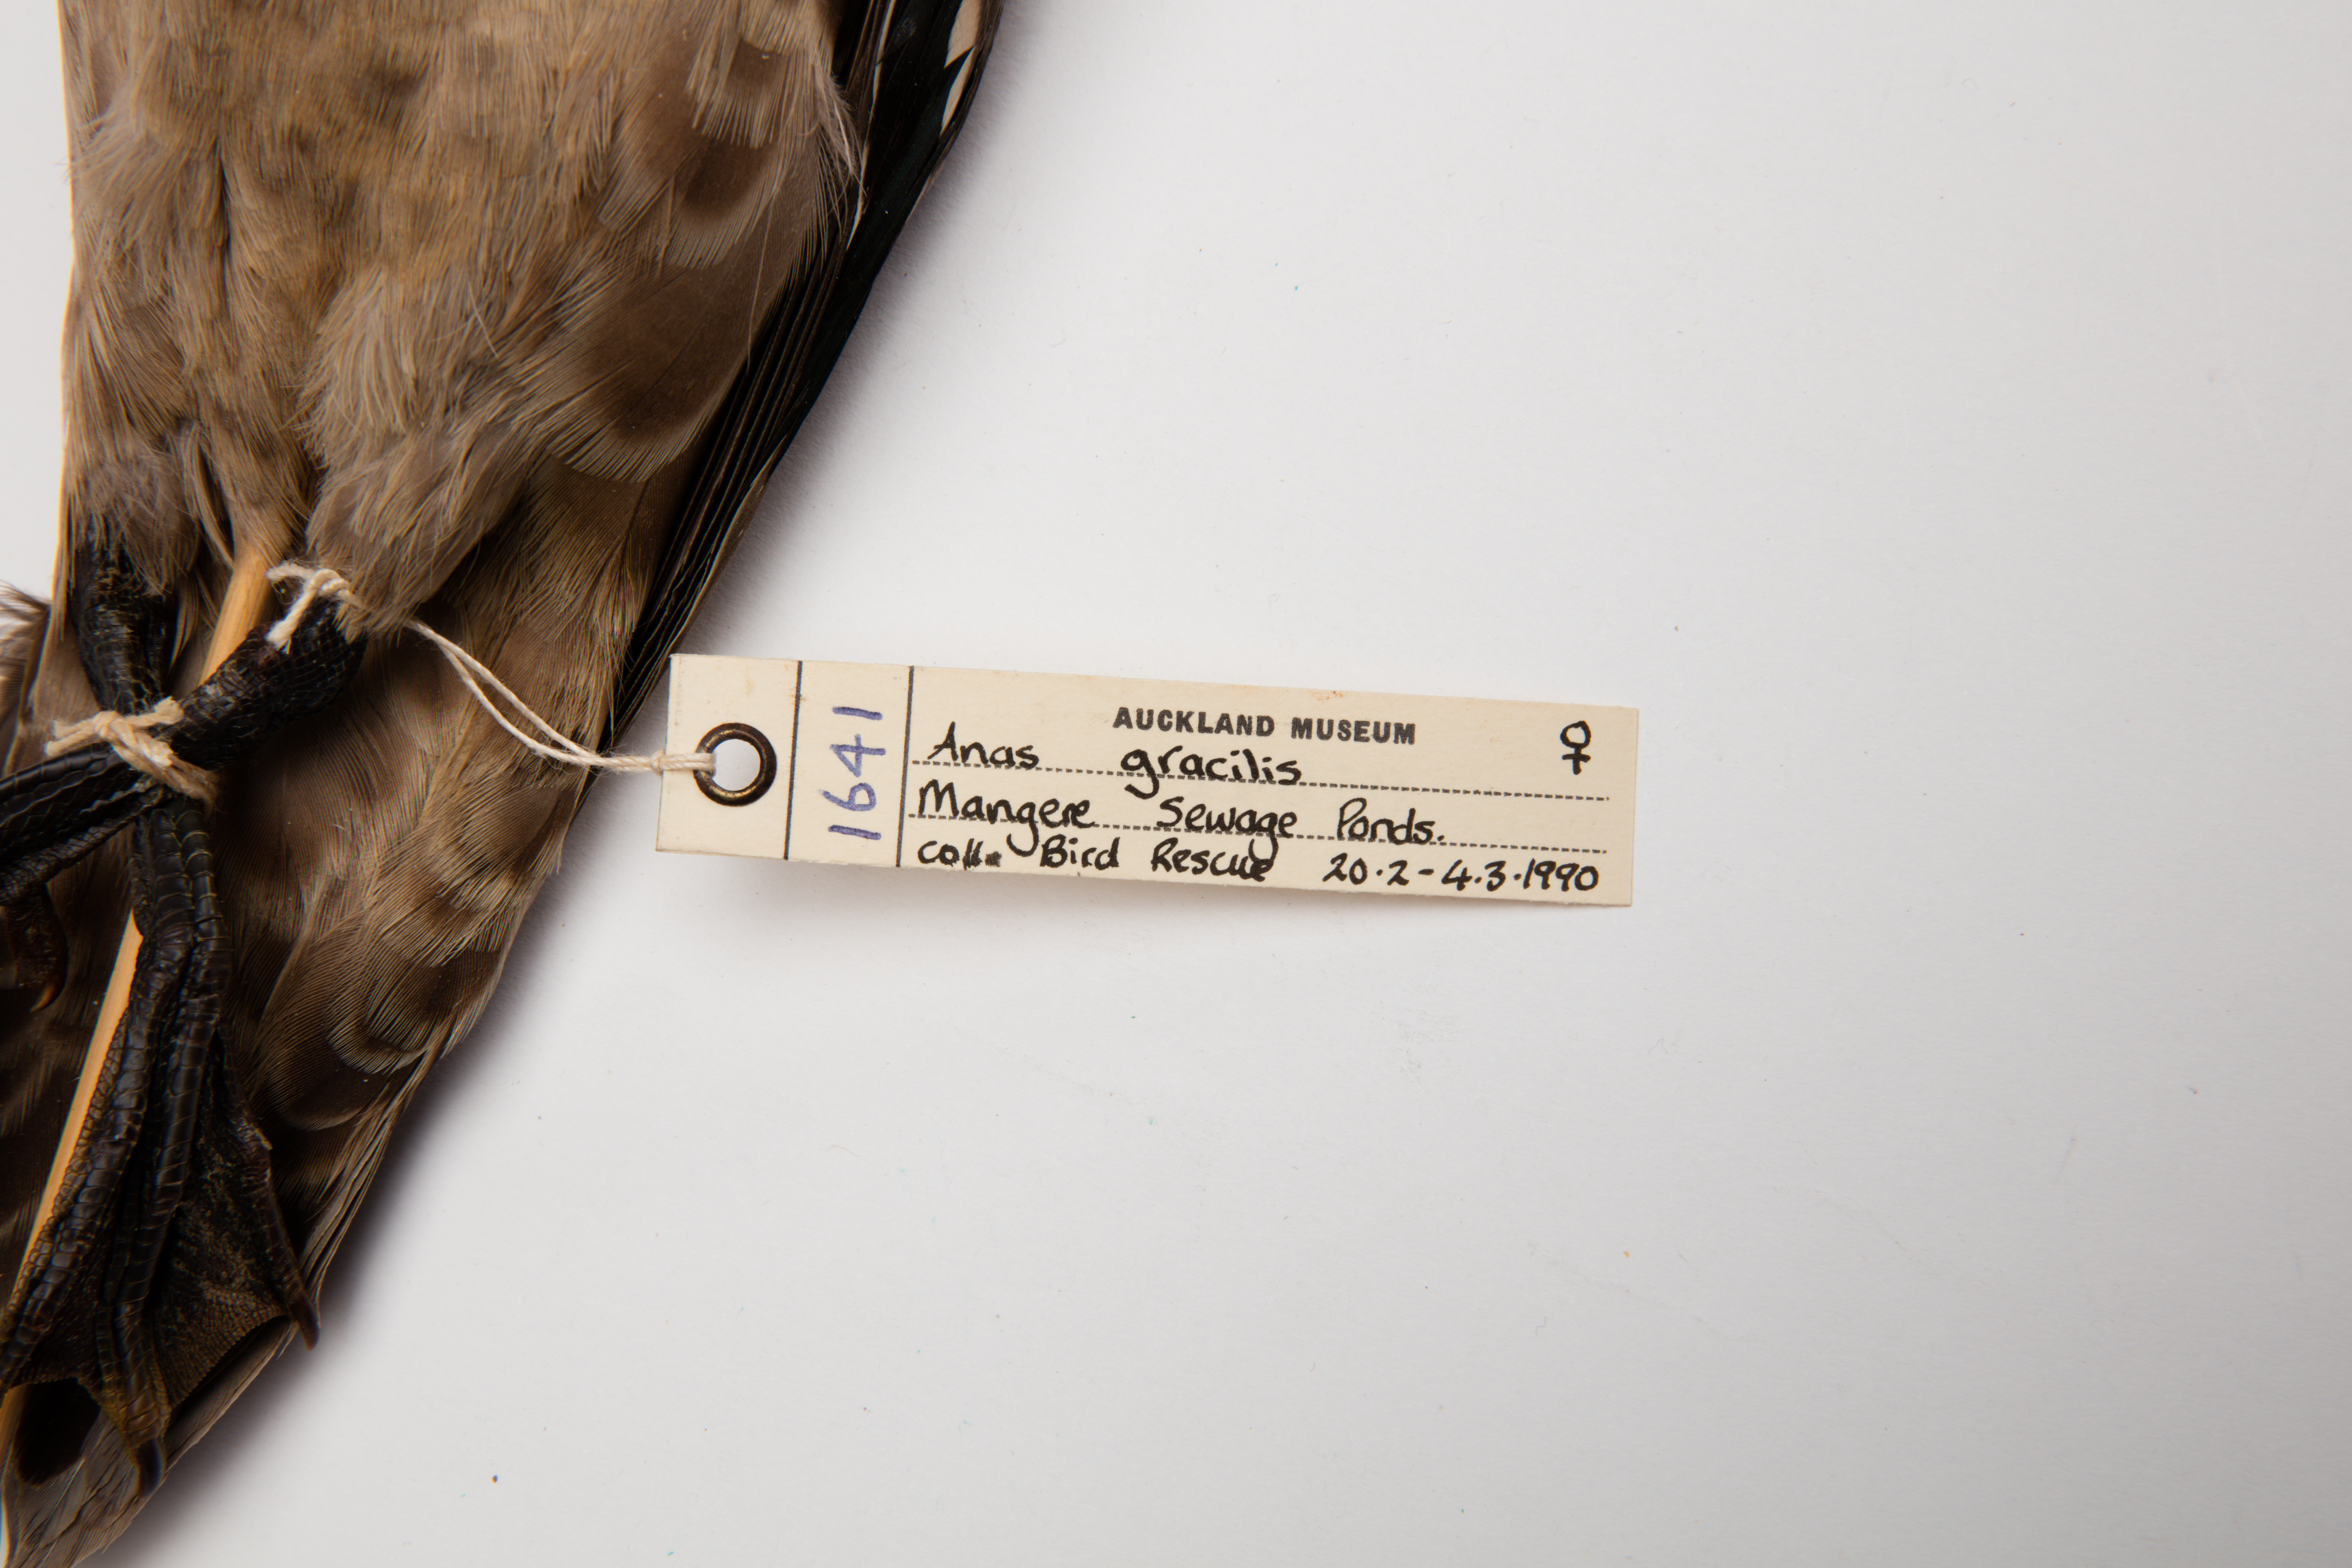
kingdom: Animalia
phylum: Chordata
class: Aves
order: Anseriformes
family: Anatidae
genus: Anas
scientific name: Anas gracilis
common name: Grey teal
